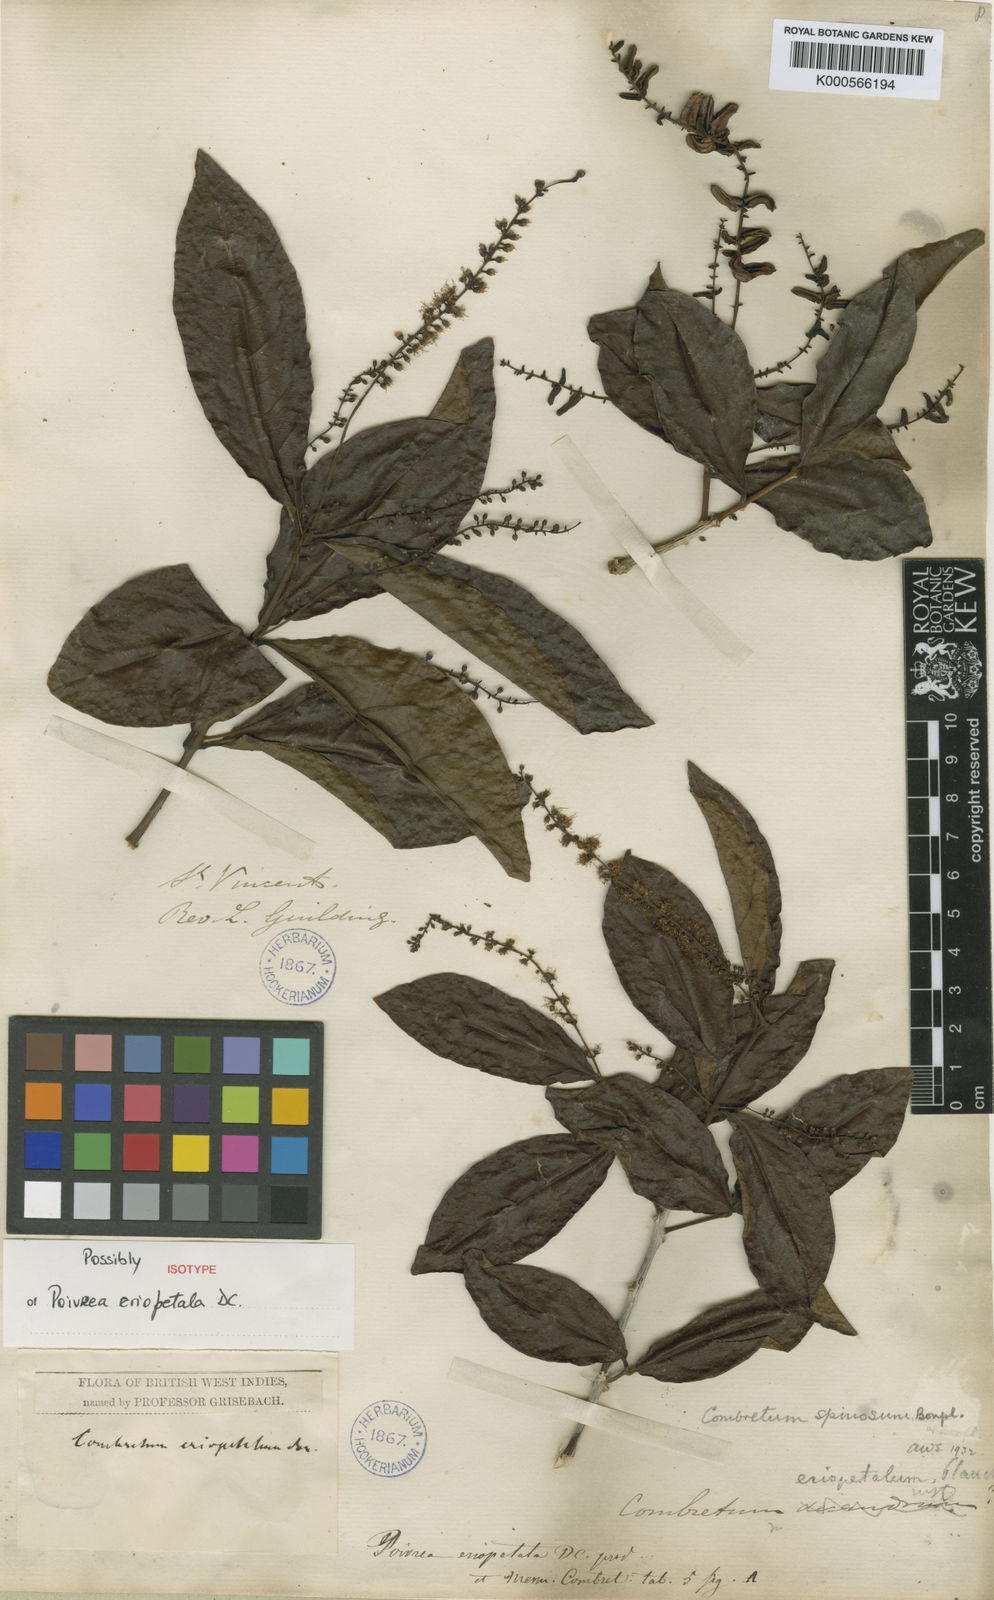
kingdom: Plantae
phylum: Tracheophyta
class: Magnoliopsida
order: Myrtales
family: Combretaceae
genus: Combretum
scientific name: Combretum spinosum
